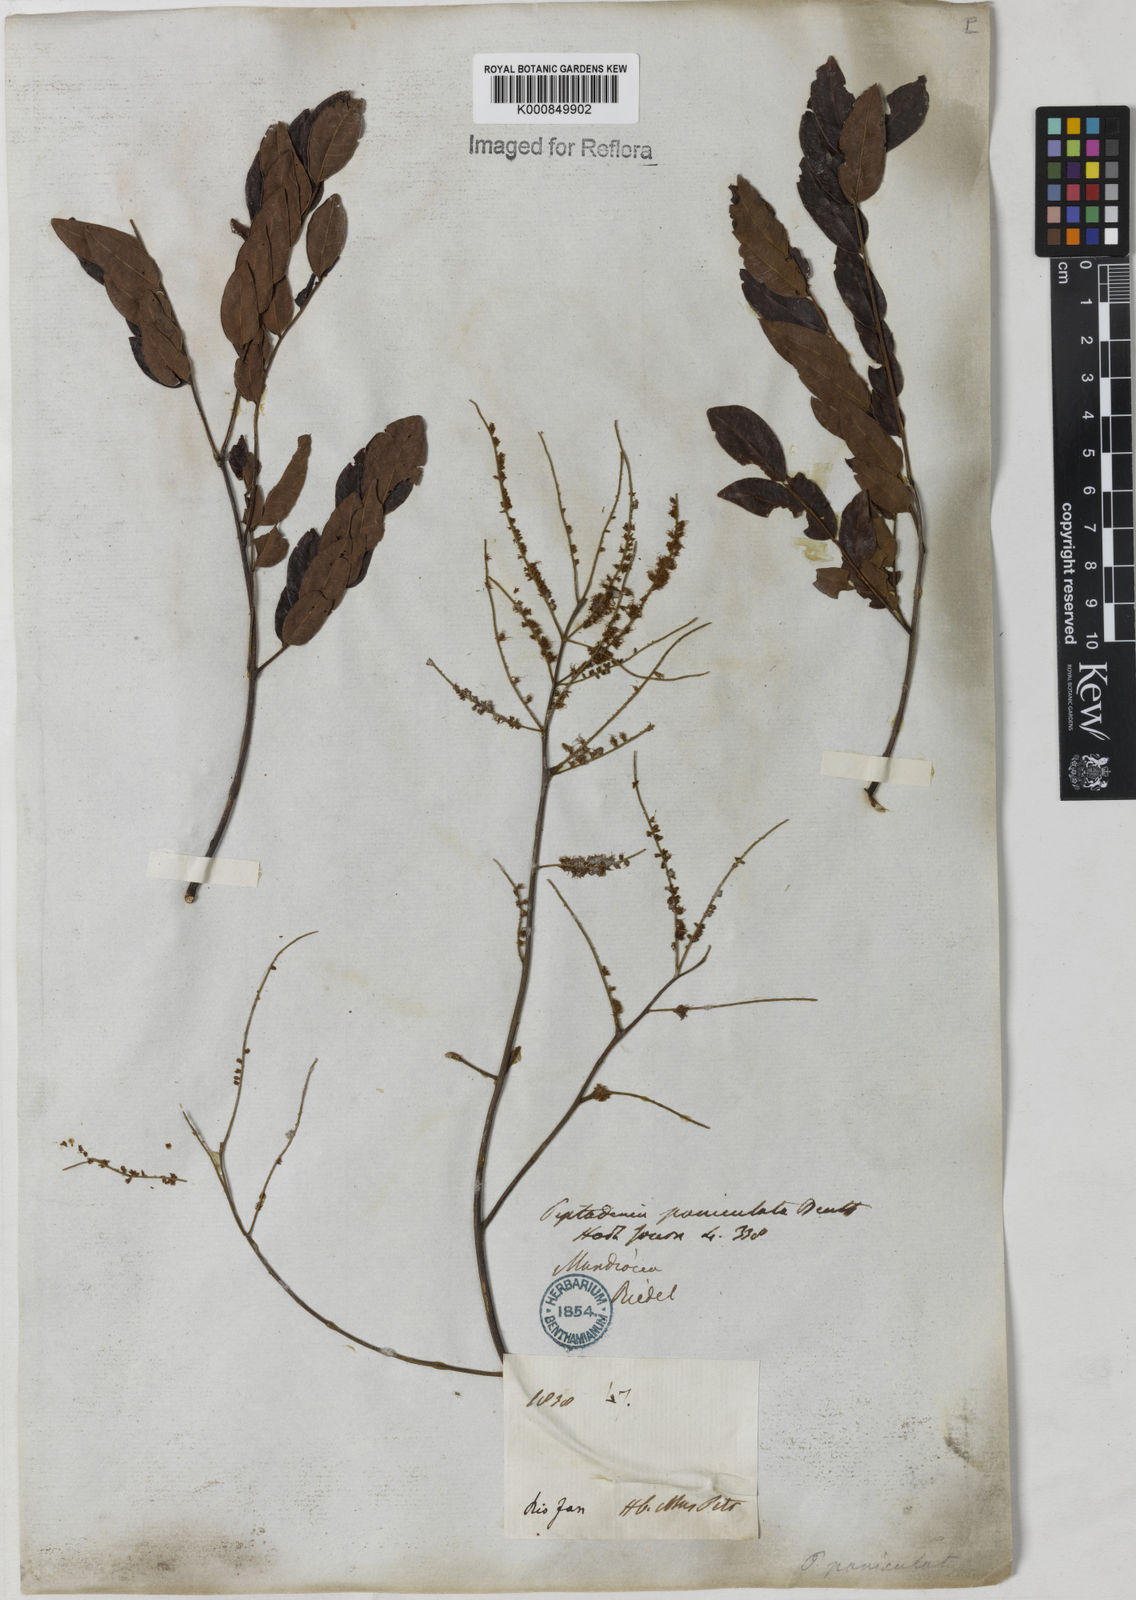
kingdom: Plantae
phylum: Tracheophyta
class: Magnoliopsida
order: Fabales
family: Fabaceae
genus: Piptadenia
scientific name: Piptadenia paniculata
